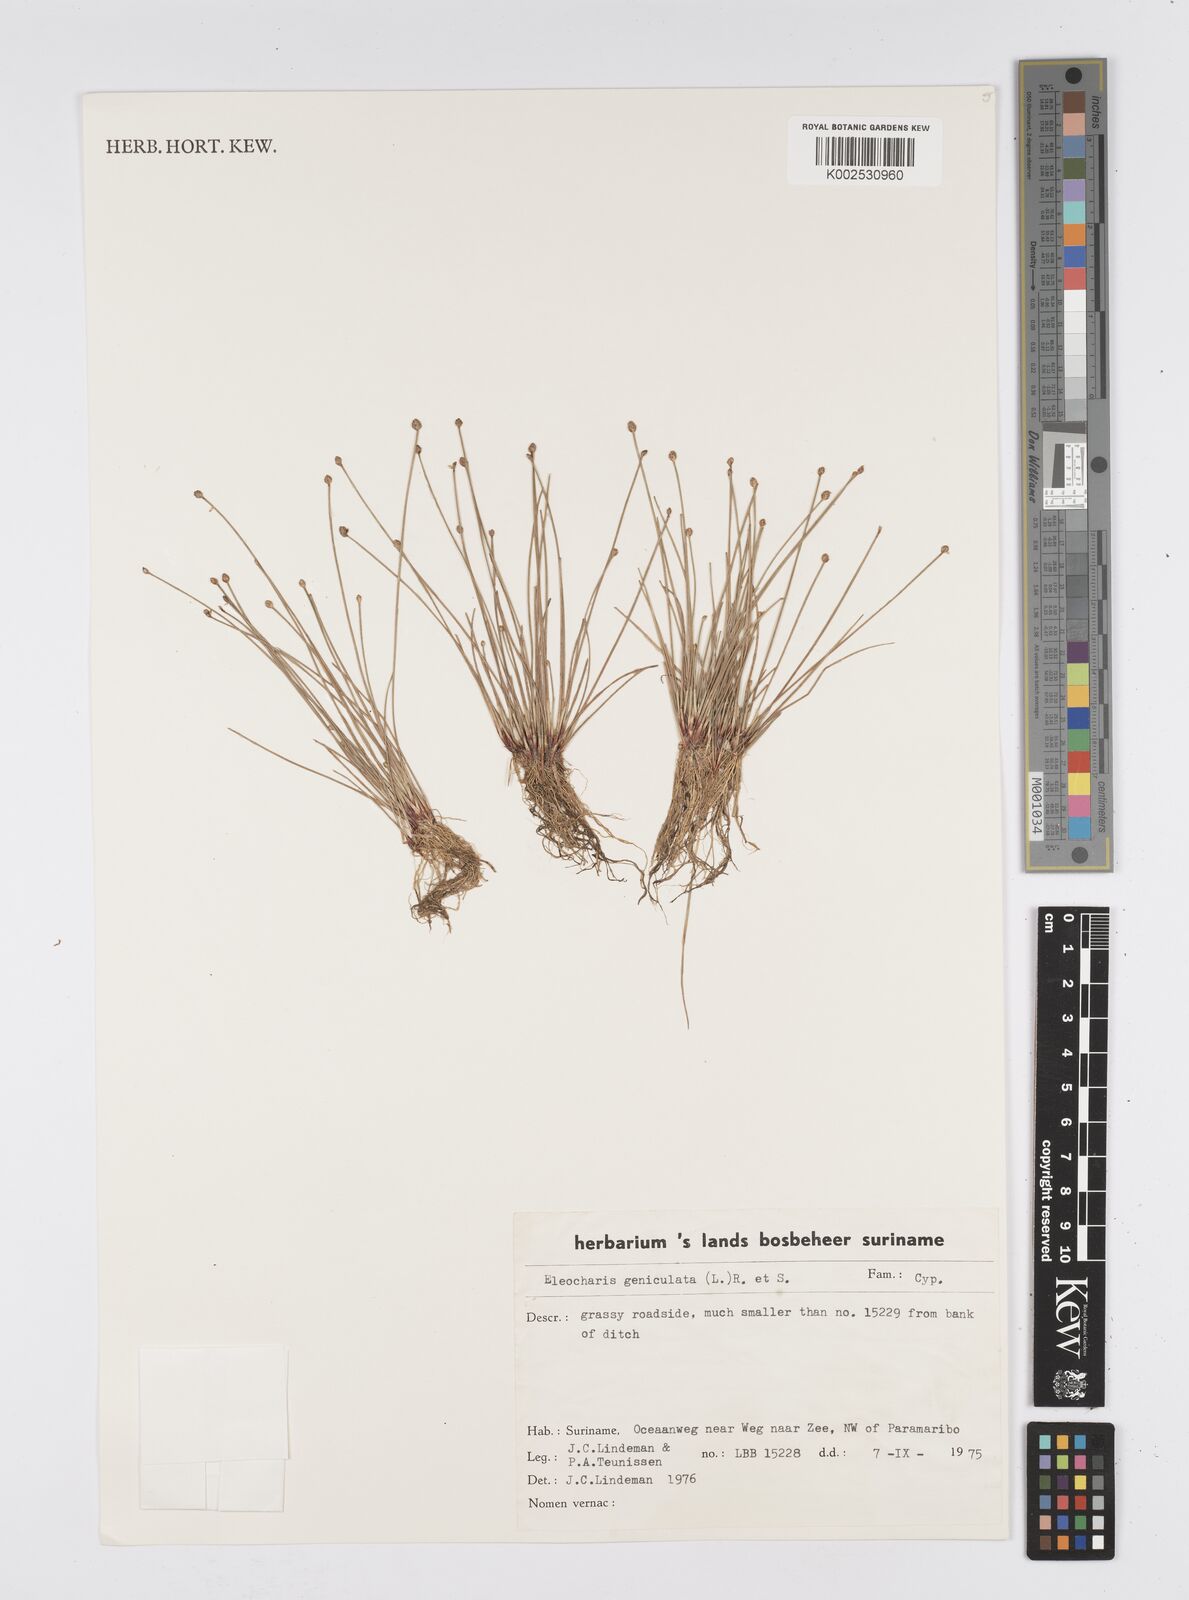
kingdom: Plantae
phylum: Tracheophyta
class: Liliopsida
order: Poales
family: Cyperaceae
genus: Eleocharis
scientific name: Eleocharis geniculata
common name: Canada spikesedge
